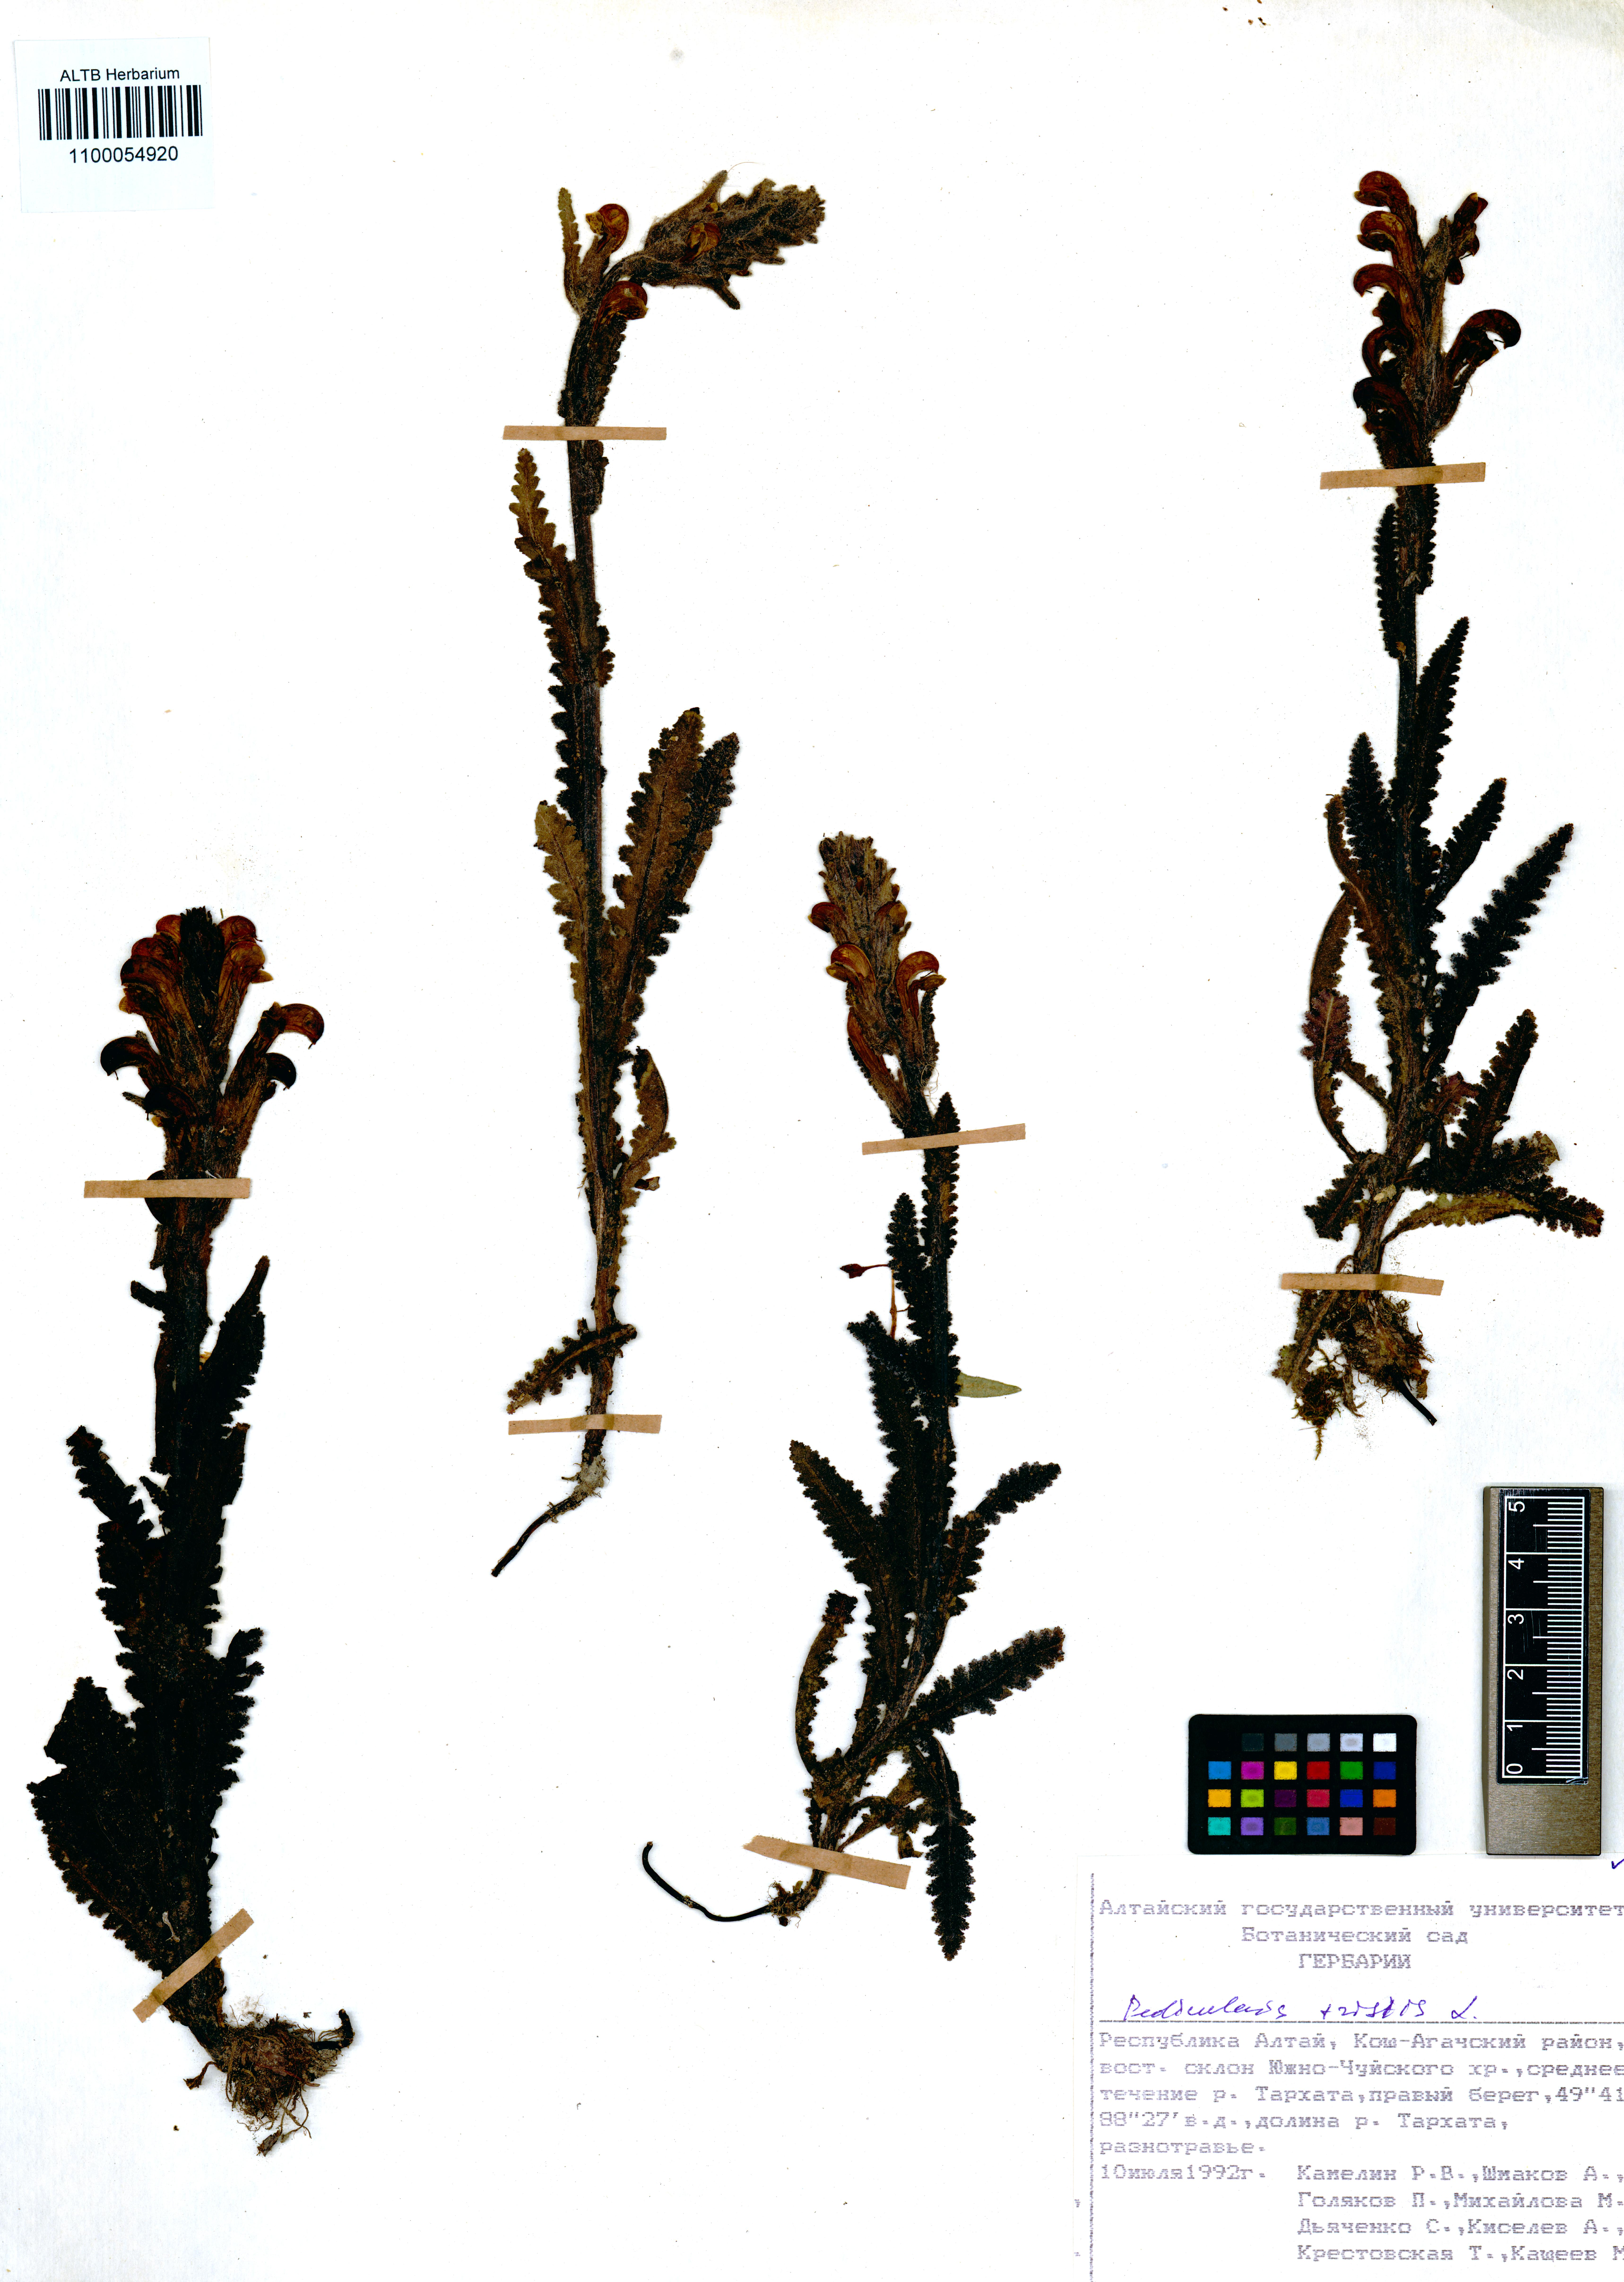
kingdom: Plantae
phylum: Tracheophyta
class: Magnoliopsida
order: Lamiales
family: Orobanchaceae
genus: Pedicularis
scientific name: Pedicularis tristis
